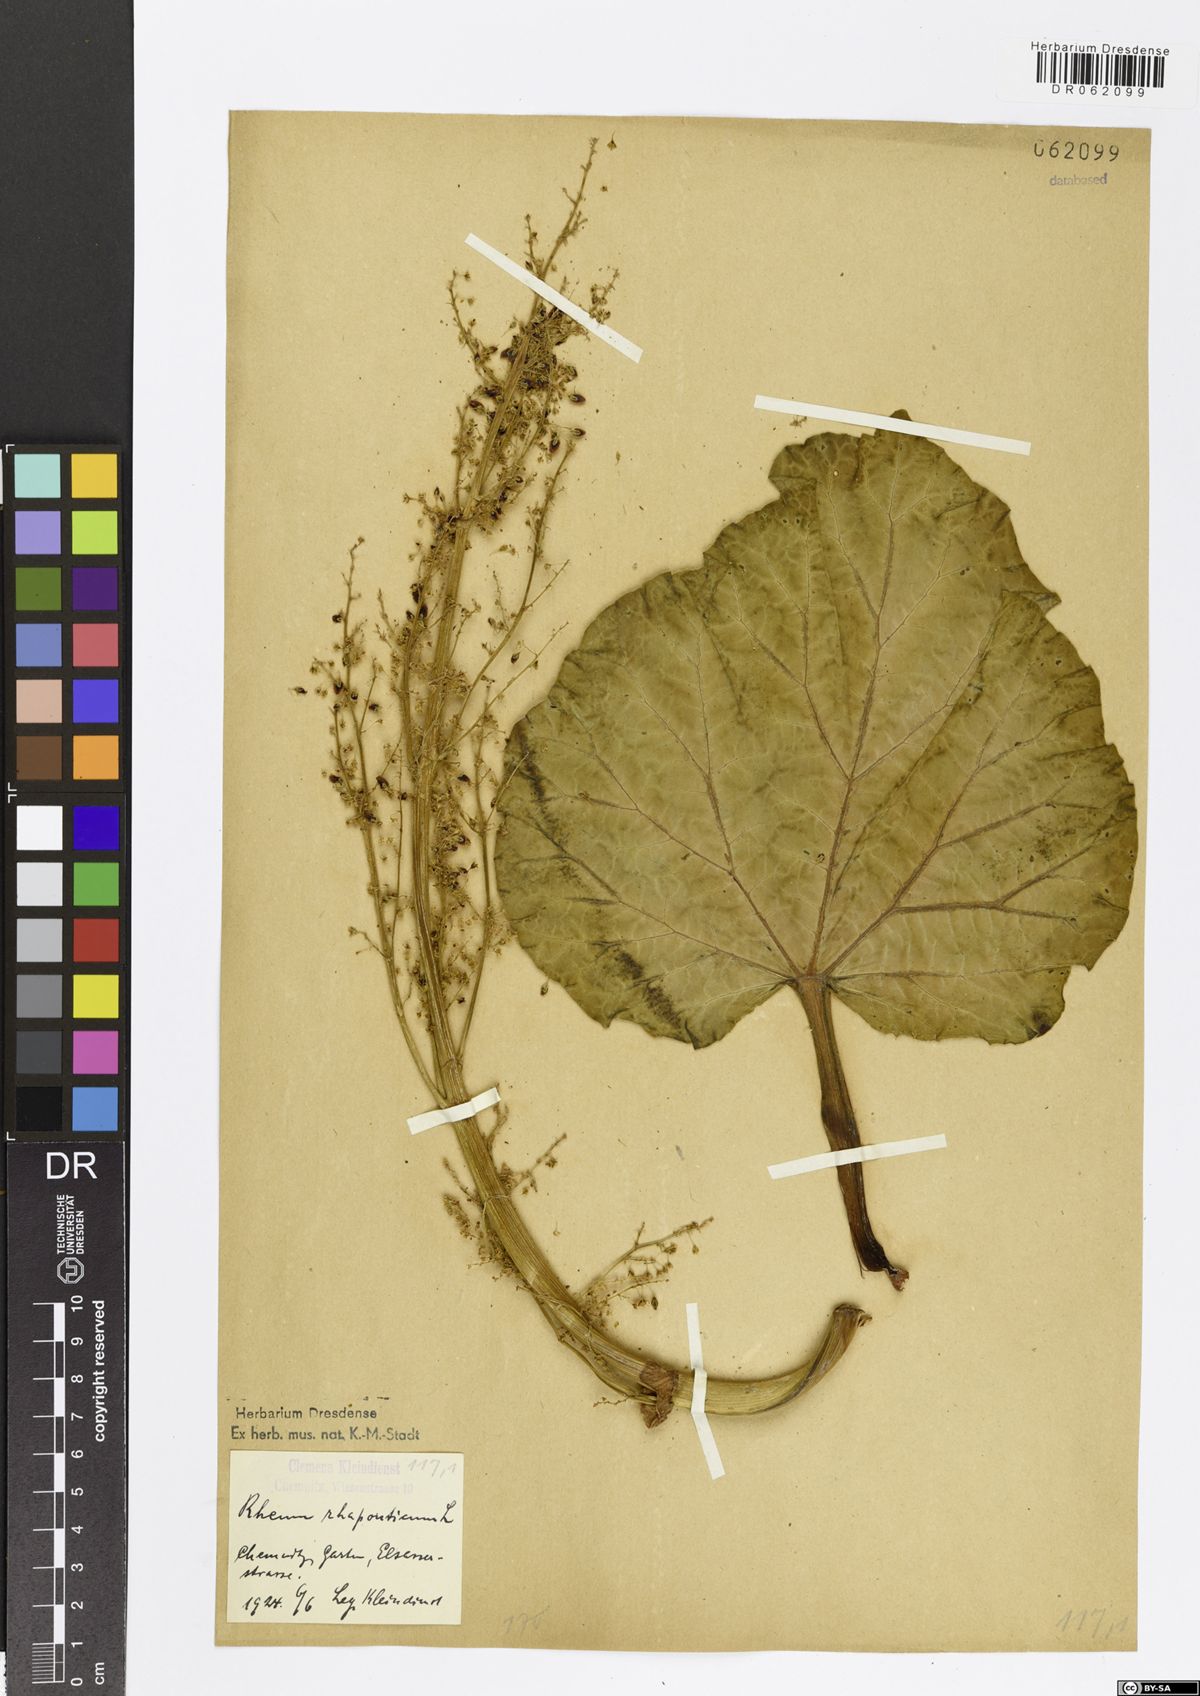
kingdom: Plantae
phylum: Tracheophyta
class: Magnoliopsida
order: Caryophyllales
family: Polygonaceae
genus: Rheum
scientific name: Rheum rhaponticum
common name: Rhubarb
